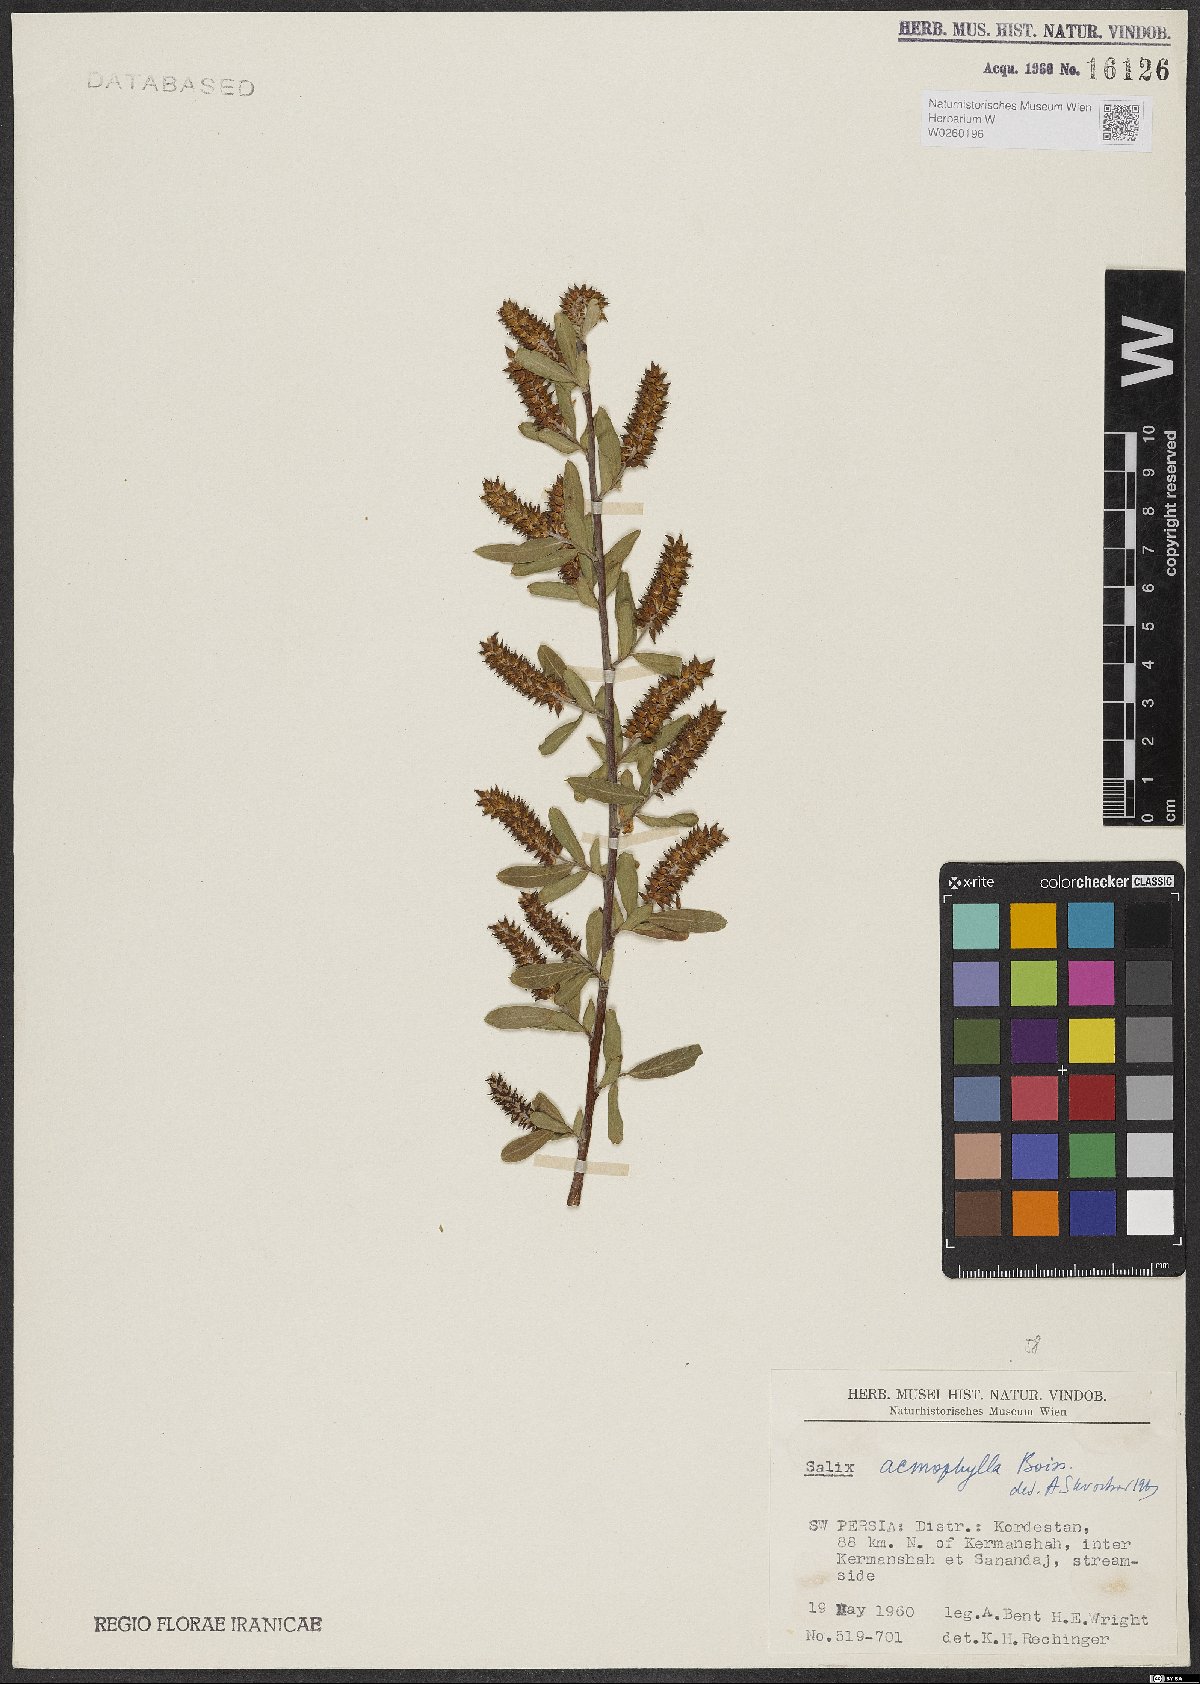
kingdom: Plantae
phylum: Tracheophyta
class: Magnoliopsida
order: Malpighiales
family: Salicaceae
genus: Salix
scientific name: Salix acmophylla
